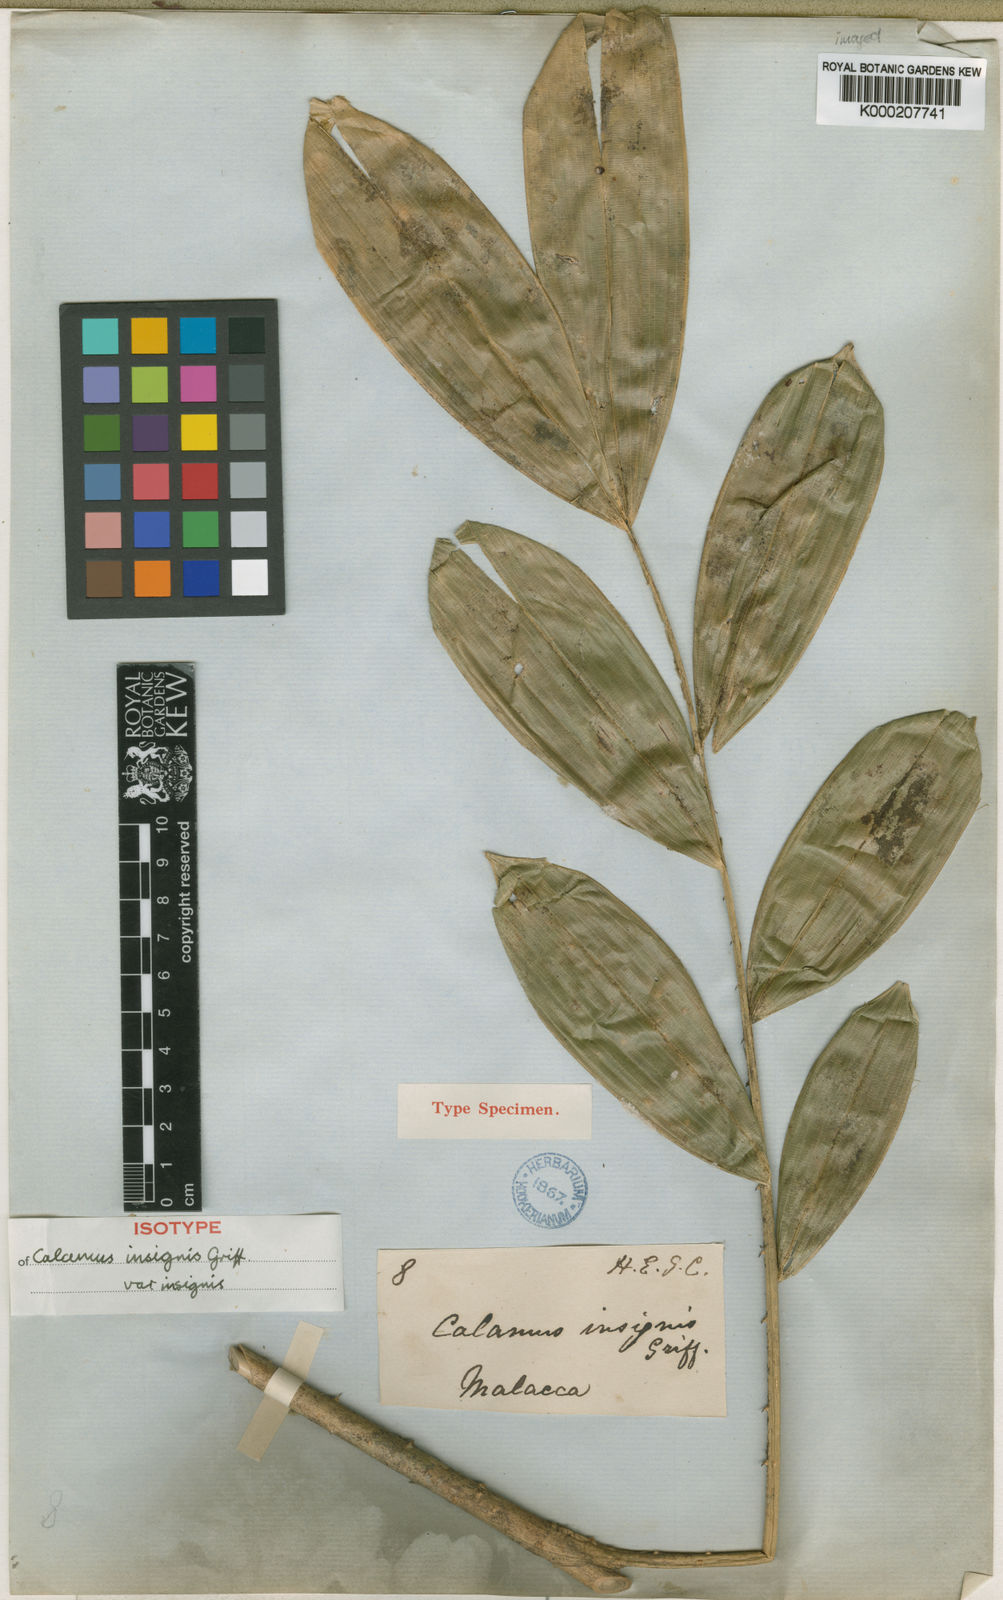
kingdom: Plantae
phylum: Tracheophyta
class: Liliopsida
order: Arecales
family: Arecaceae
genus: Calamus
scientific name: Calamus insignis
